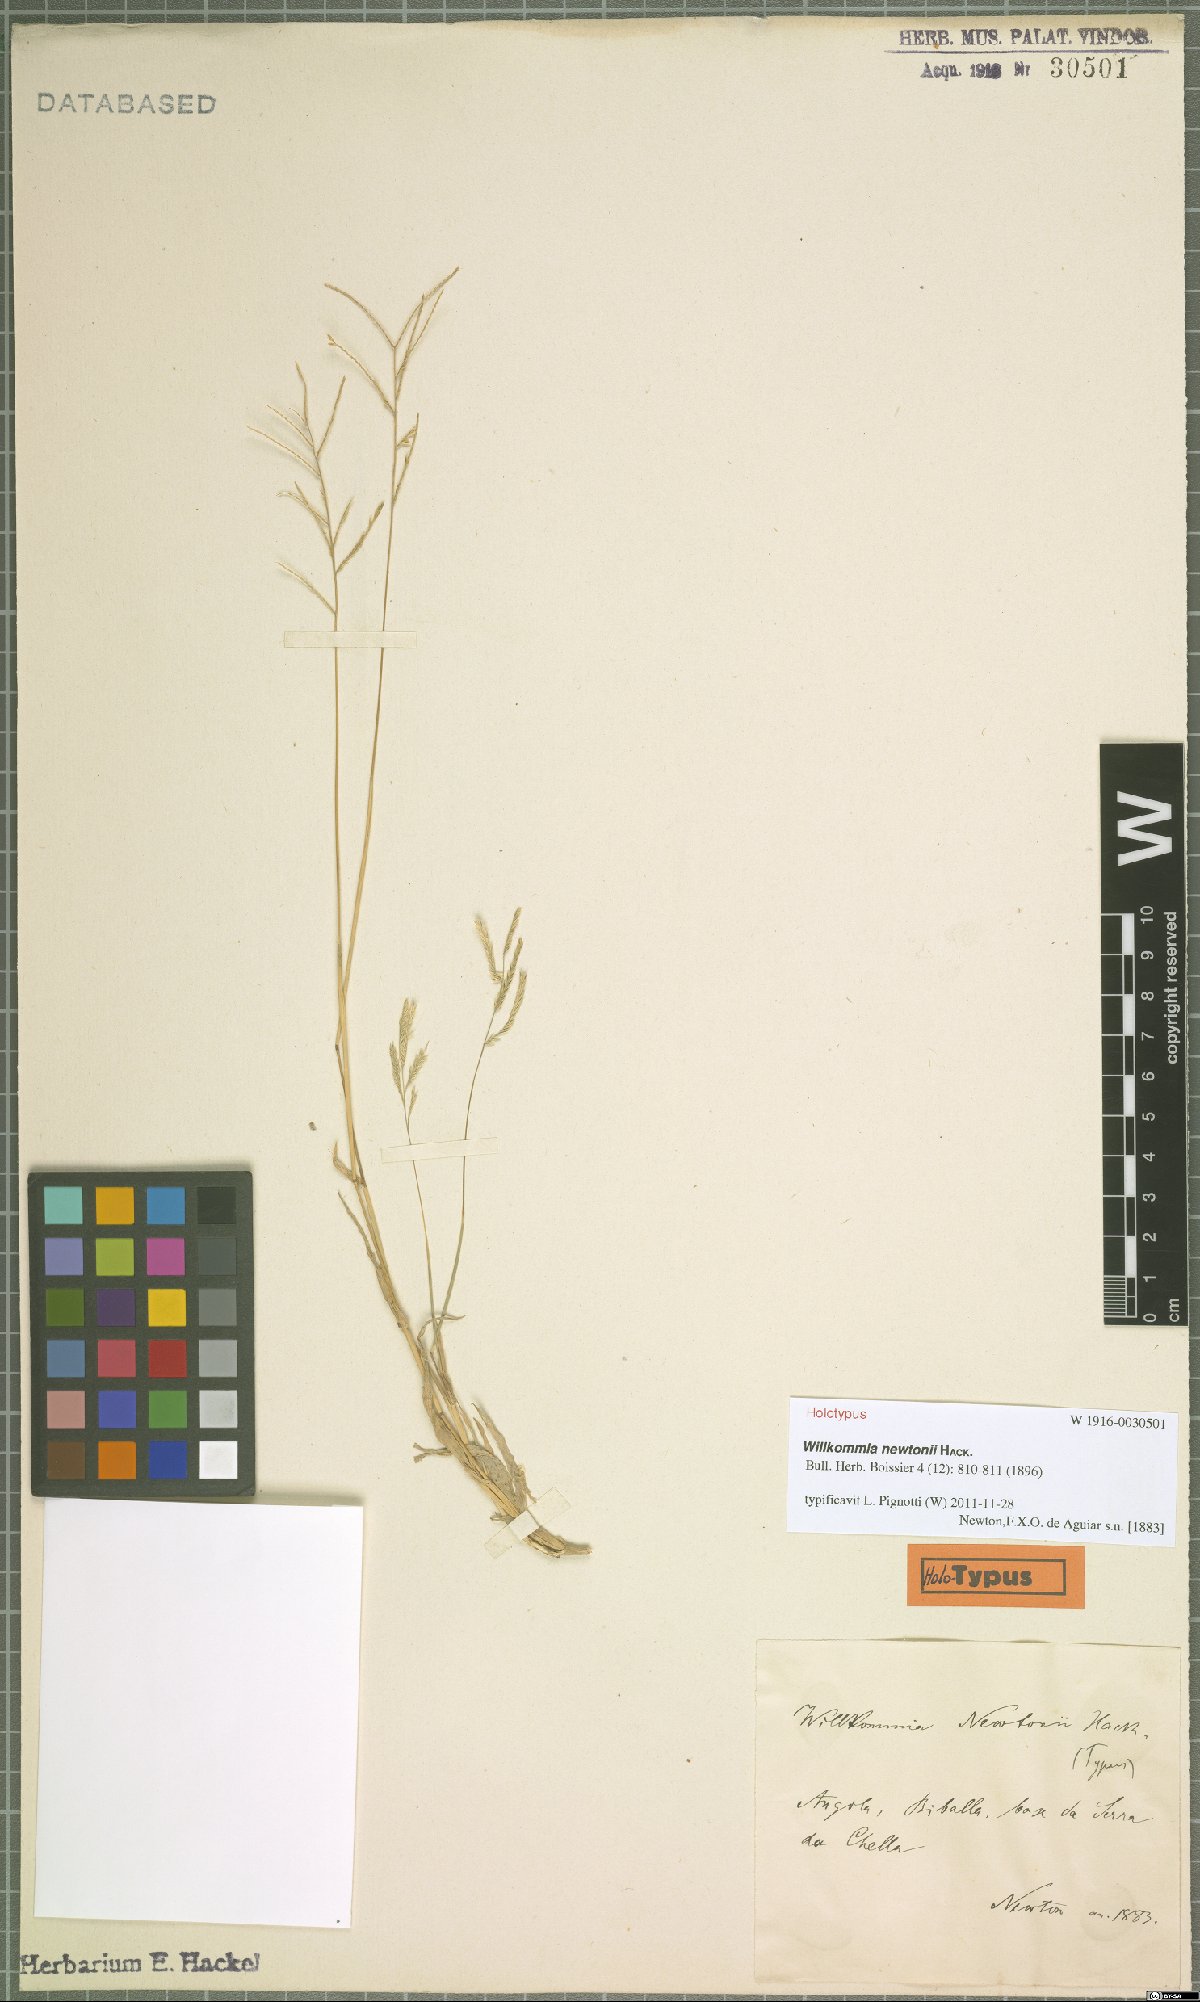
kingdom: Plantae
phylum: Tracheophyta
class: Liliopsida
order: Poales
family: Poaceae
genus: Willkommia
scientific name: Willkommia newtonii
